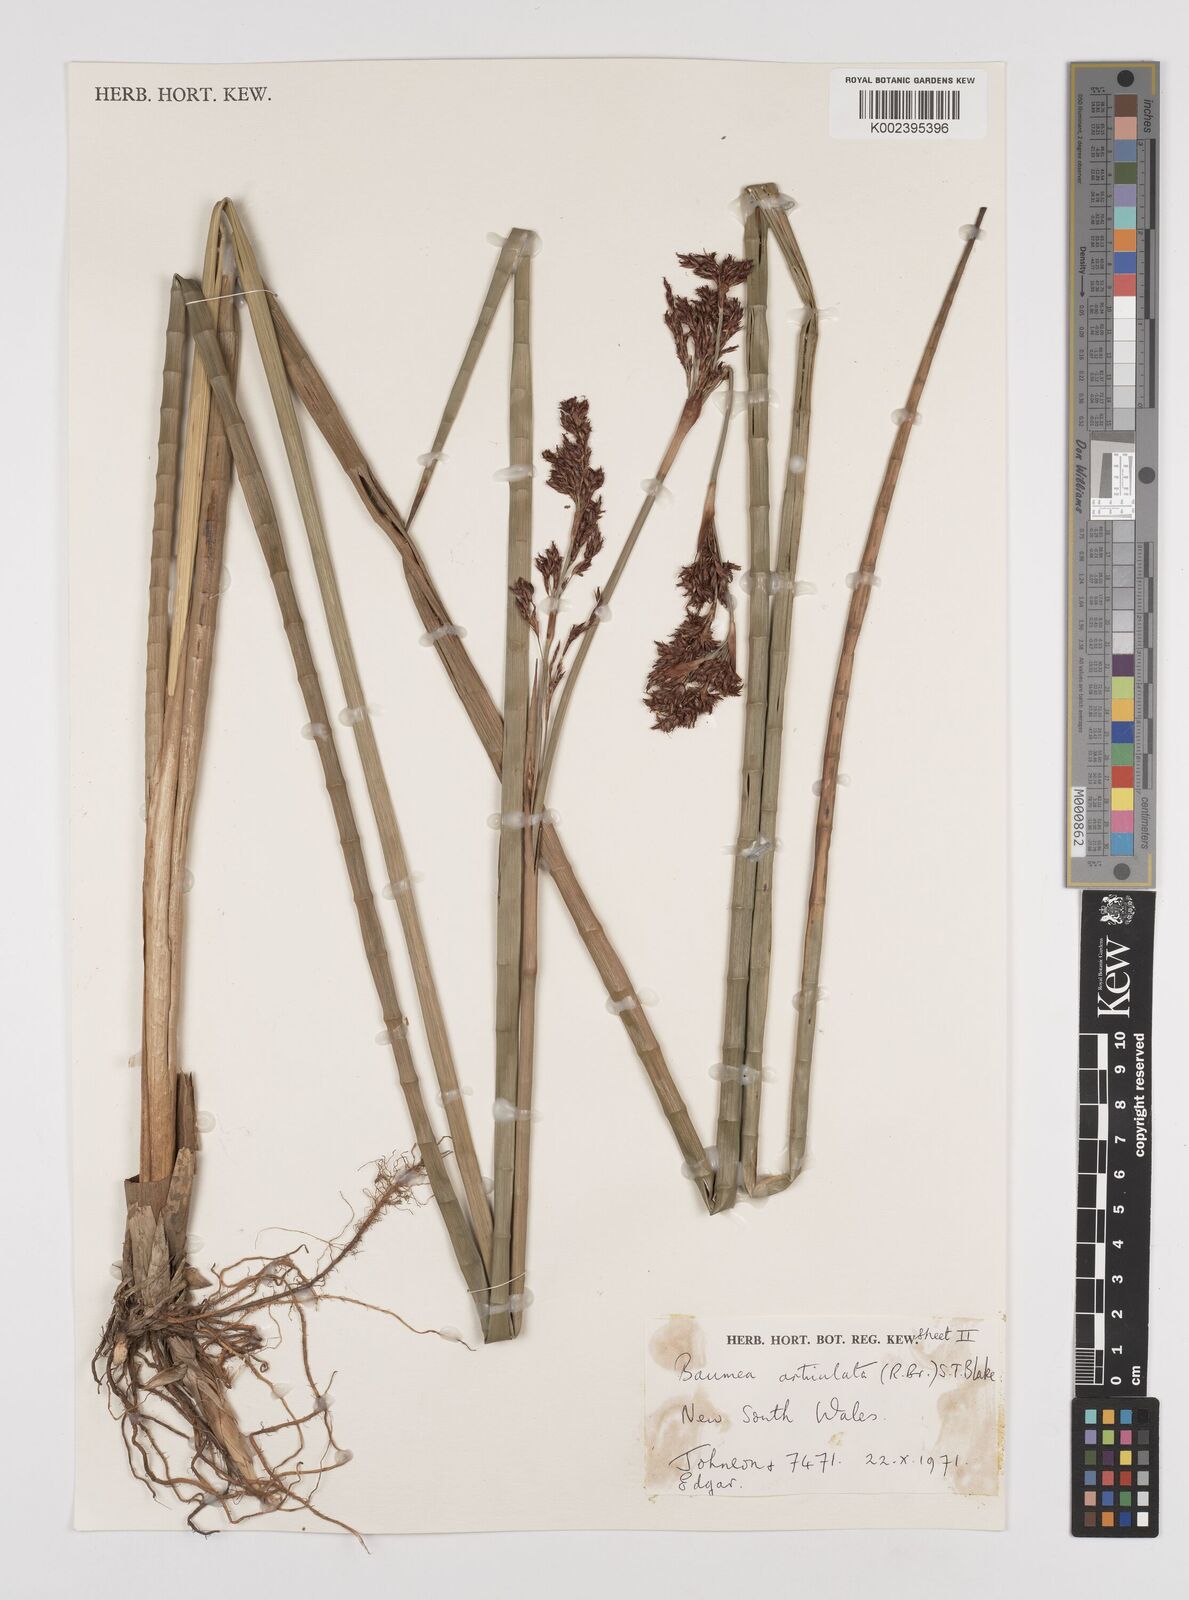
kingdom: Plantae
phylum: Tracheophyta
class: Liliopsida
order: Poales
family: Cyperaceae
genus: Machaerina
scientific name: Machaerina articulata
